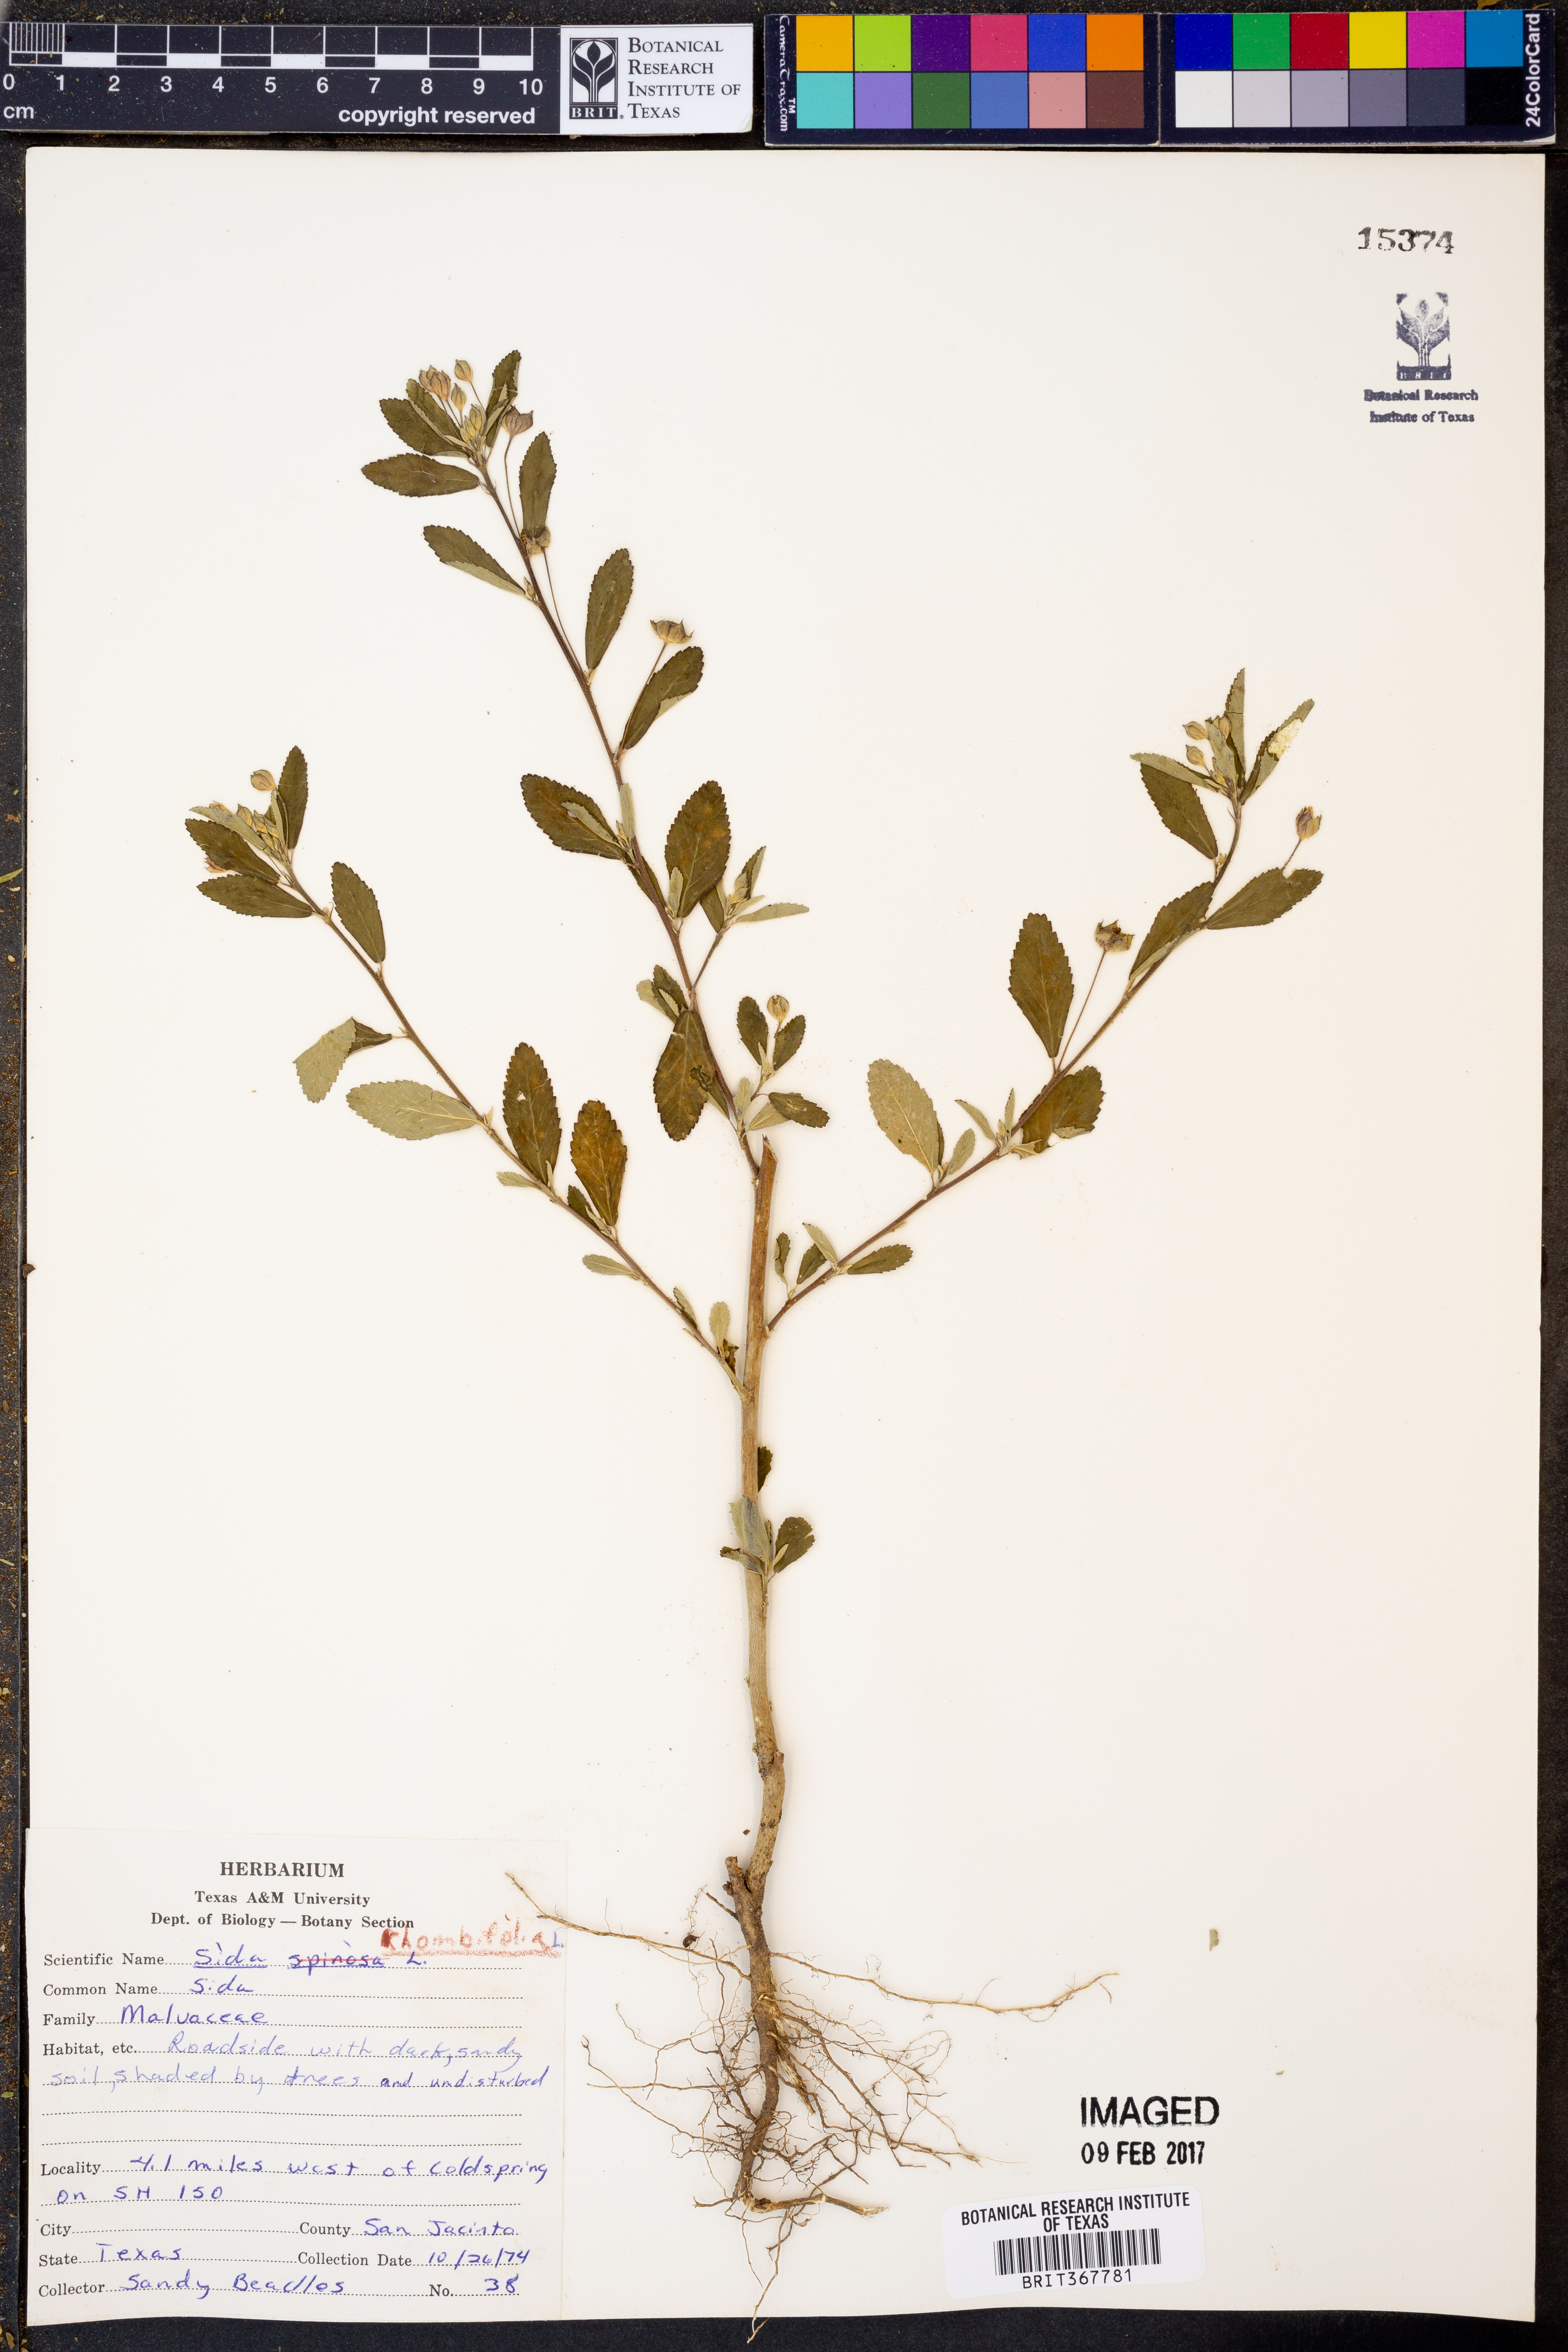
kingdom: Plantae
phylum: Tracheophyta
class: Magnoliopsida
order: Malvales
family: Malvaceae
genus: Sida
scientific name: Sida rhombifolia
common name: Queensland-hemp
